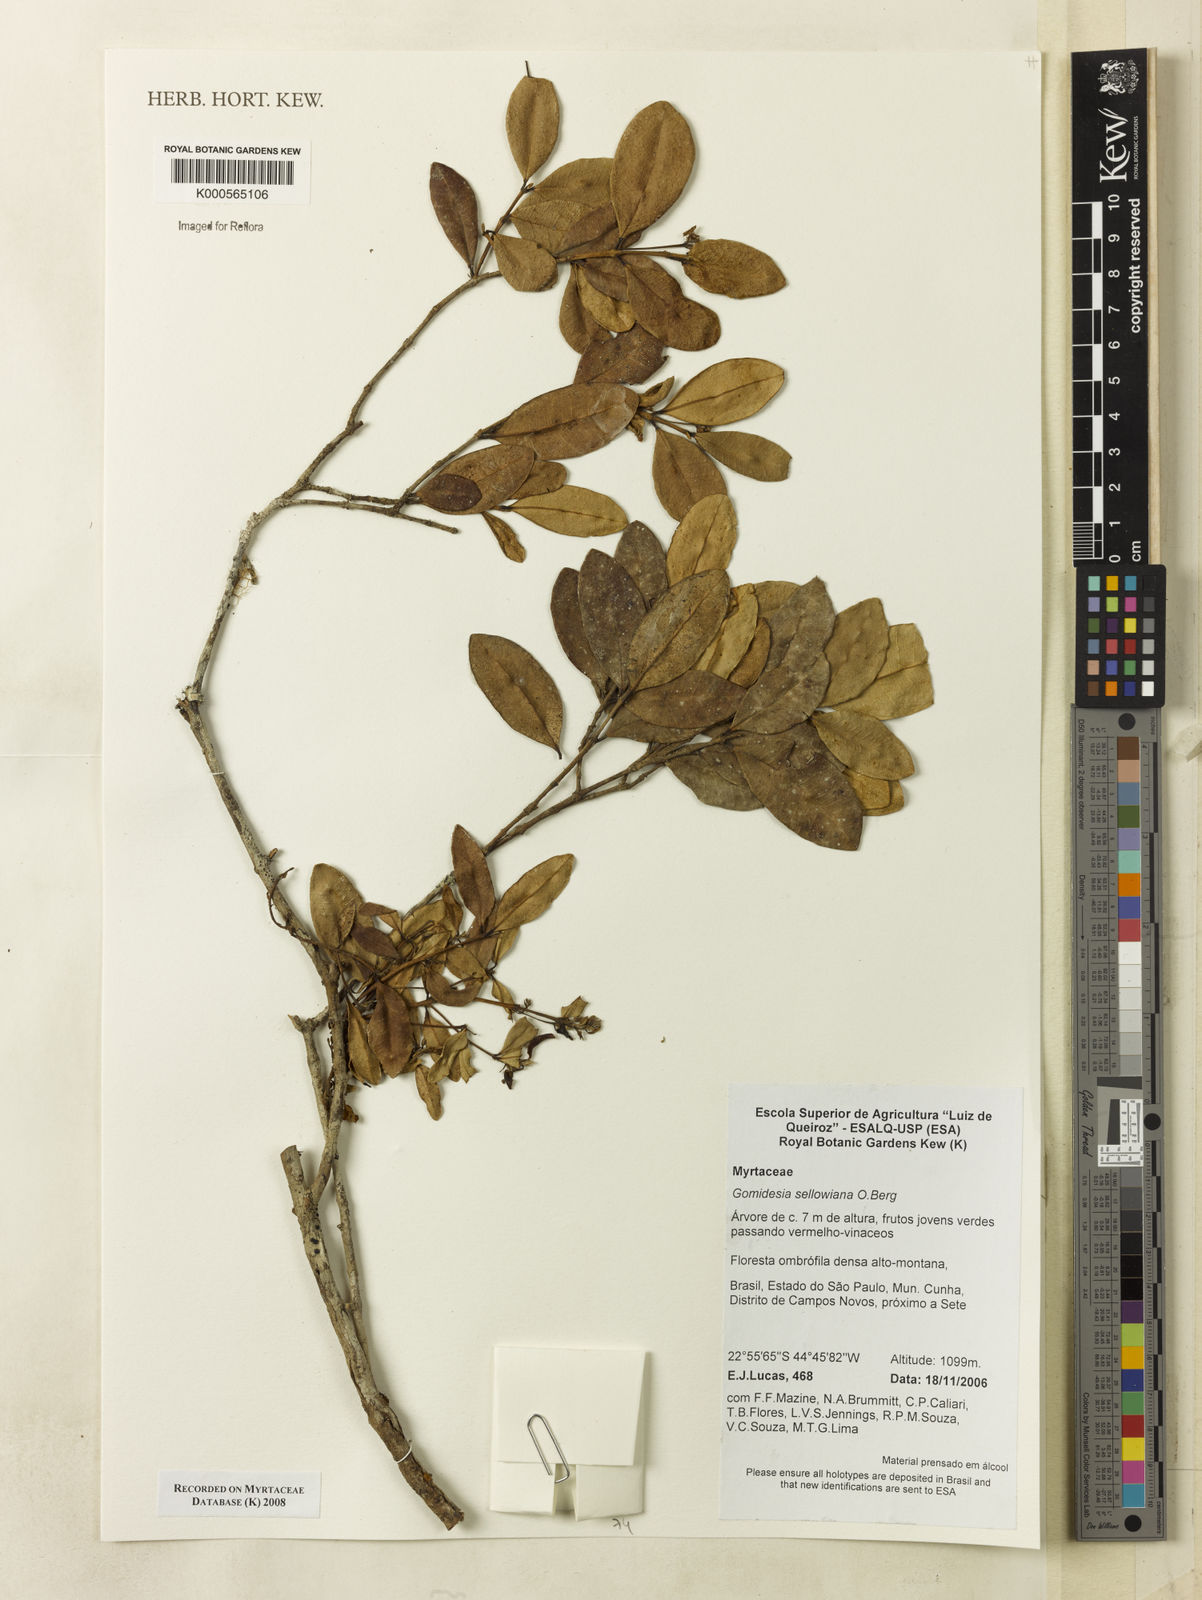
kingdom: Plantae
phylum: Tracheophyta
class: Magnoliopsida
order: Myrtales
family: Myrtaceae
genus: Myrcia
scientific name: Myrcia hartwegiana
